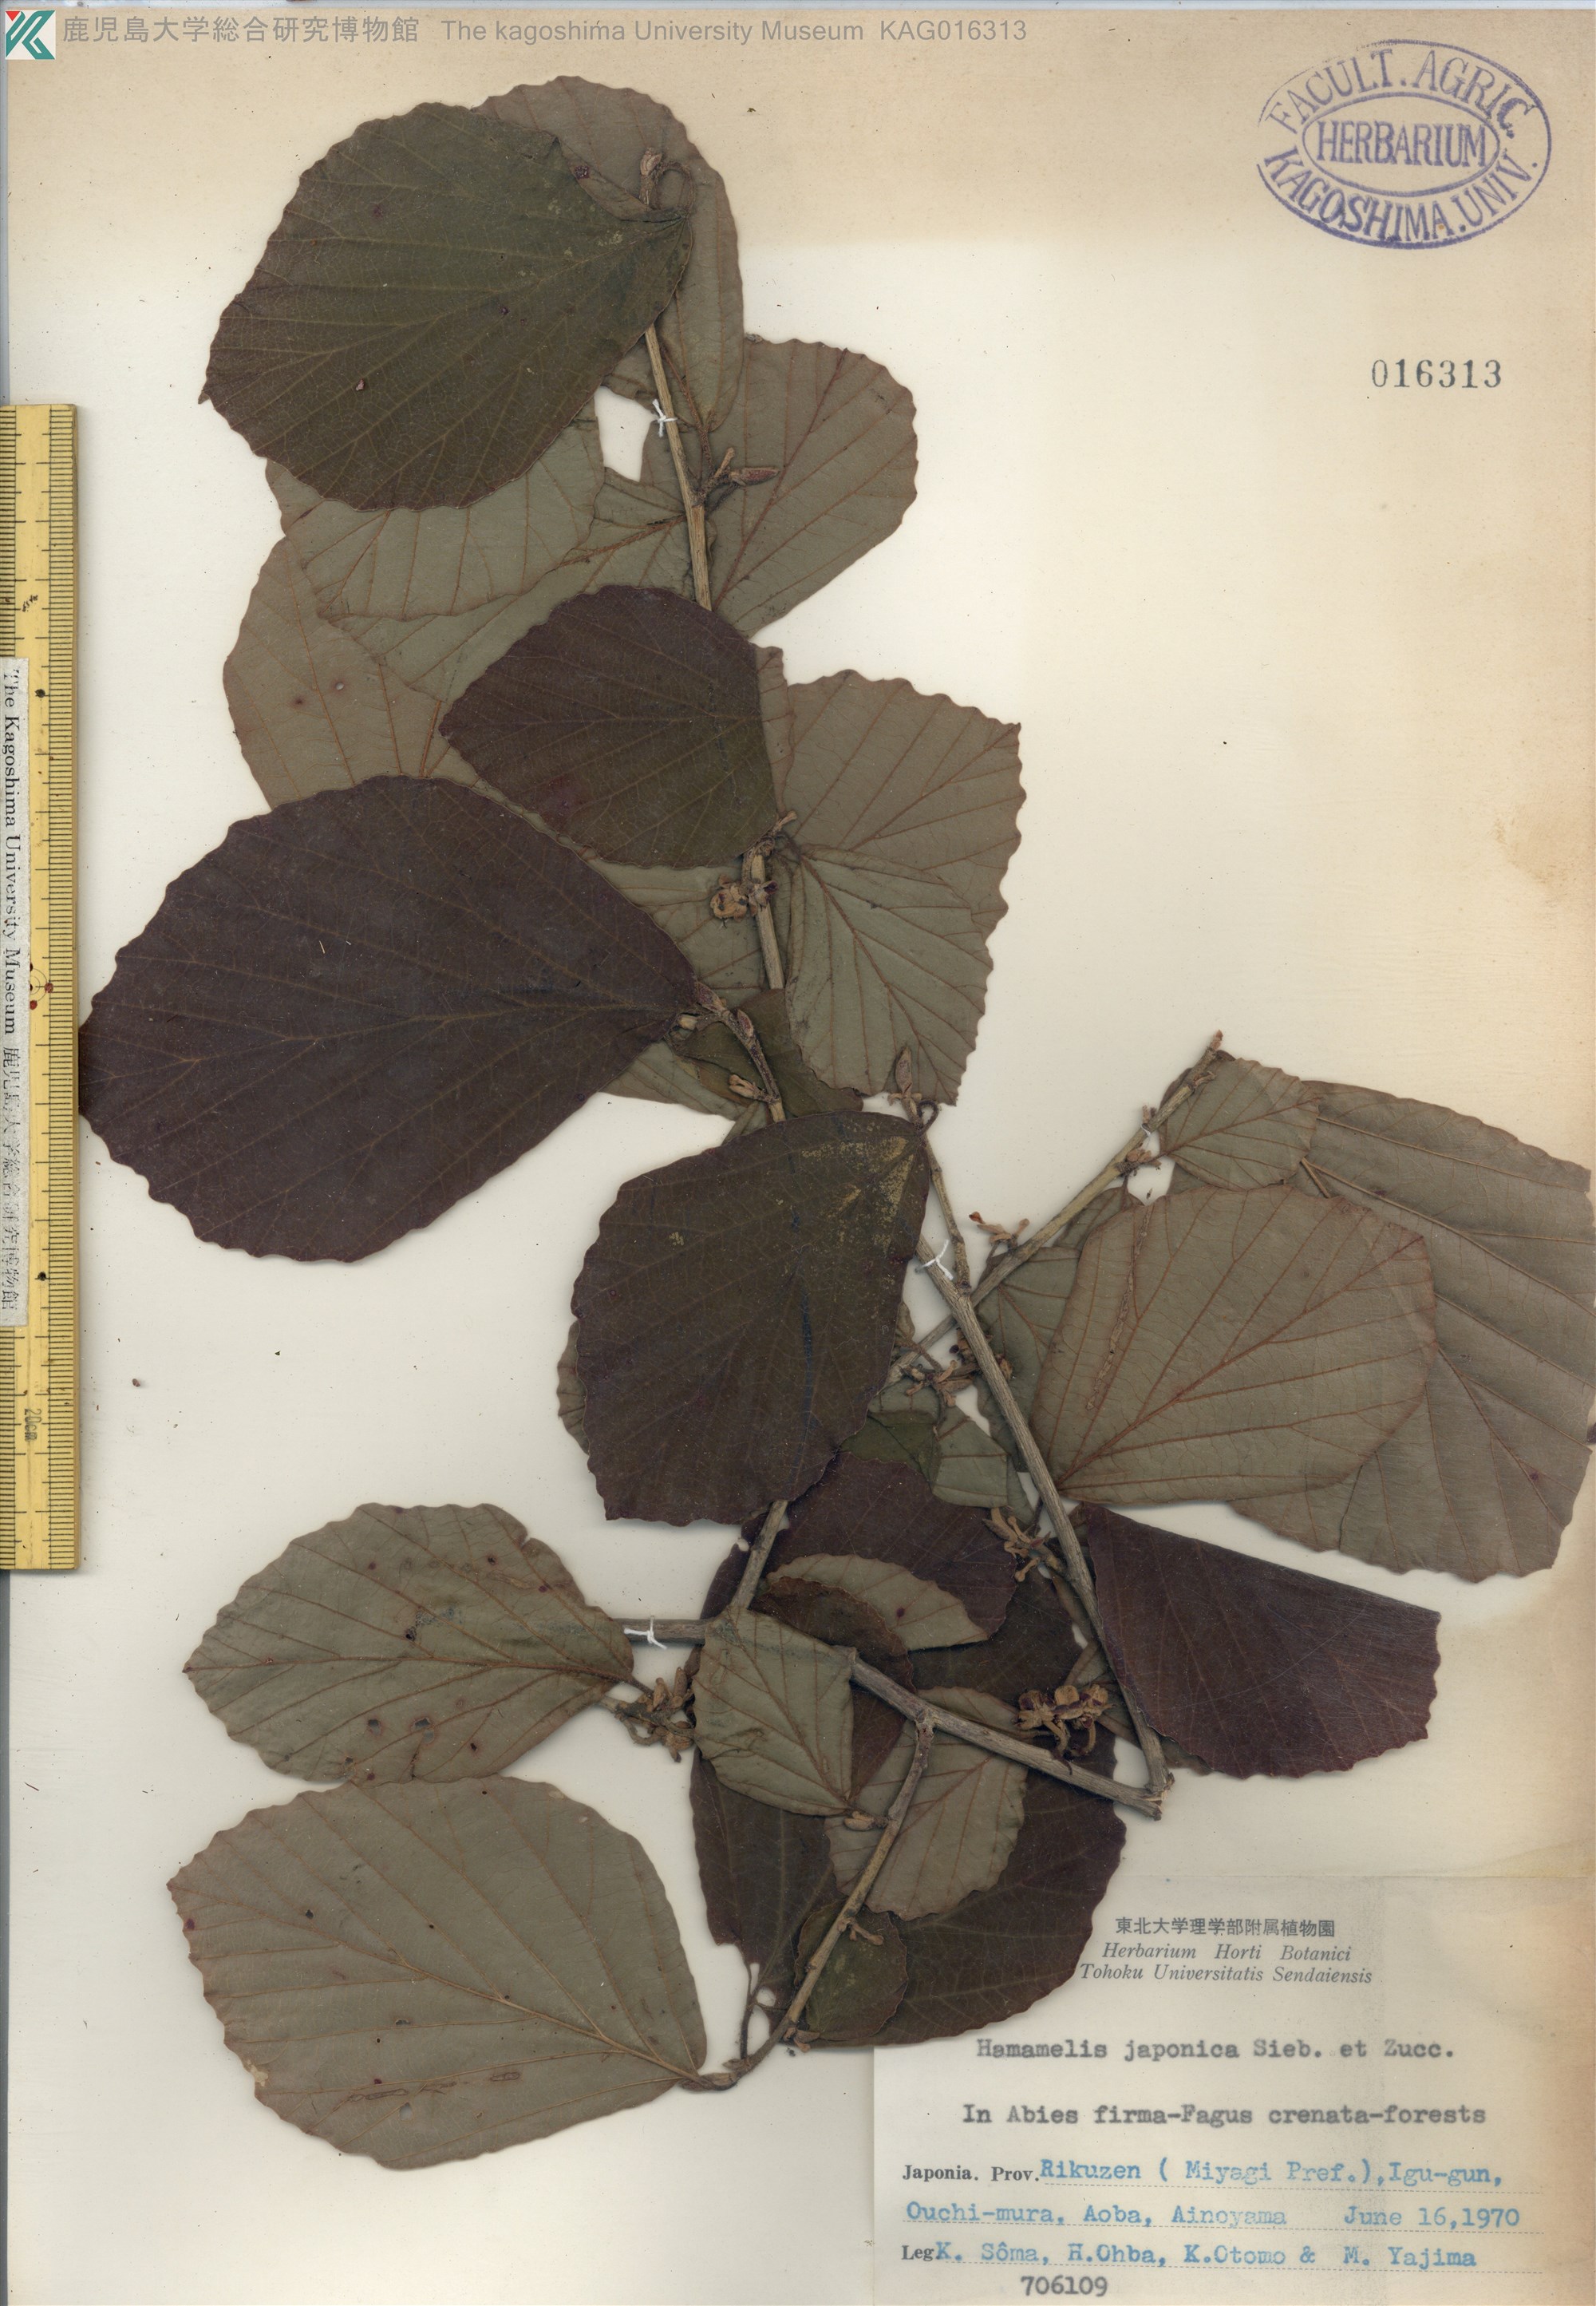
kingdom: Plantae
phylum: Tracheophyta
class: Magnoliopsida
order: Saxifragales
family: Hamamelidaceae
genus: Hamamelis
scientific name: Hamamelis japonica
